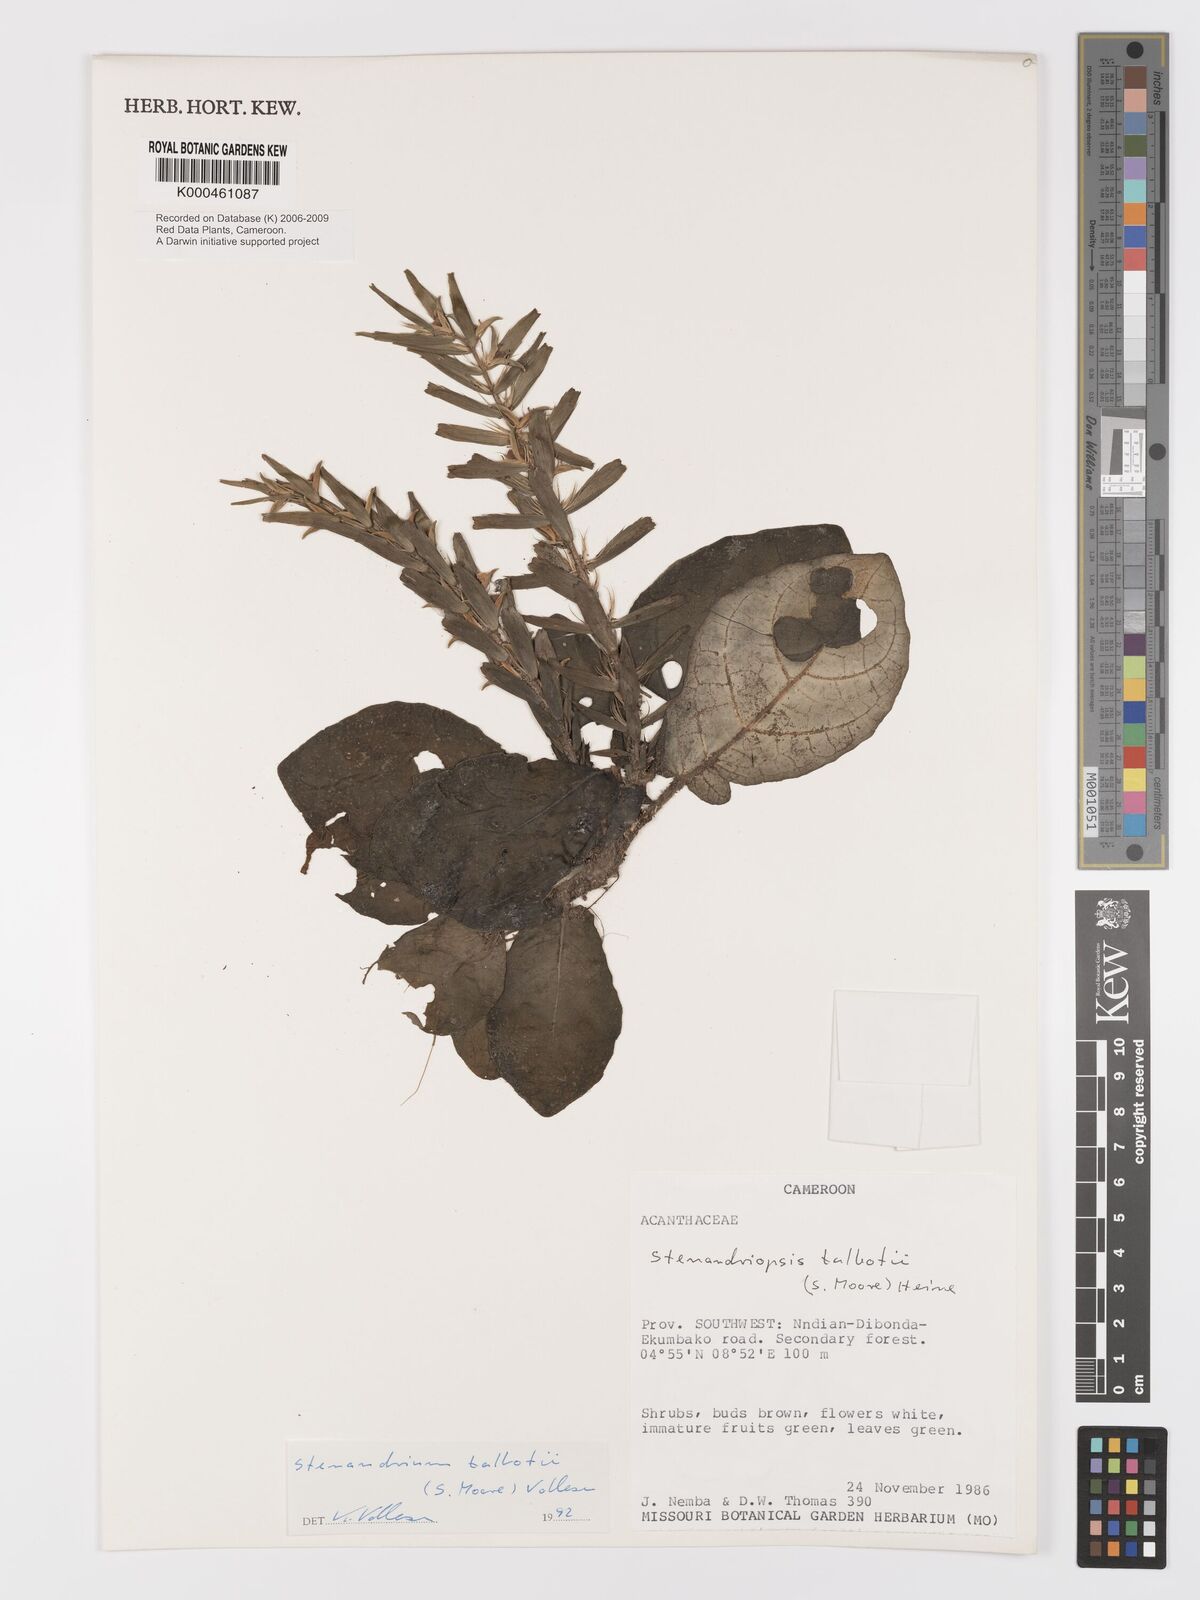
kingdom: Plantae
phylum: Tracheophyta
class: Magnoliopsida
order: Lamiales
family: Acanthaceae
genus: Stenandriopsis
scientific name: Stenandriopsis talbotii
